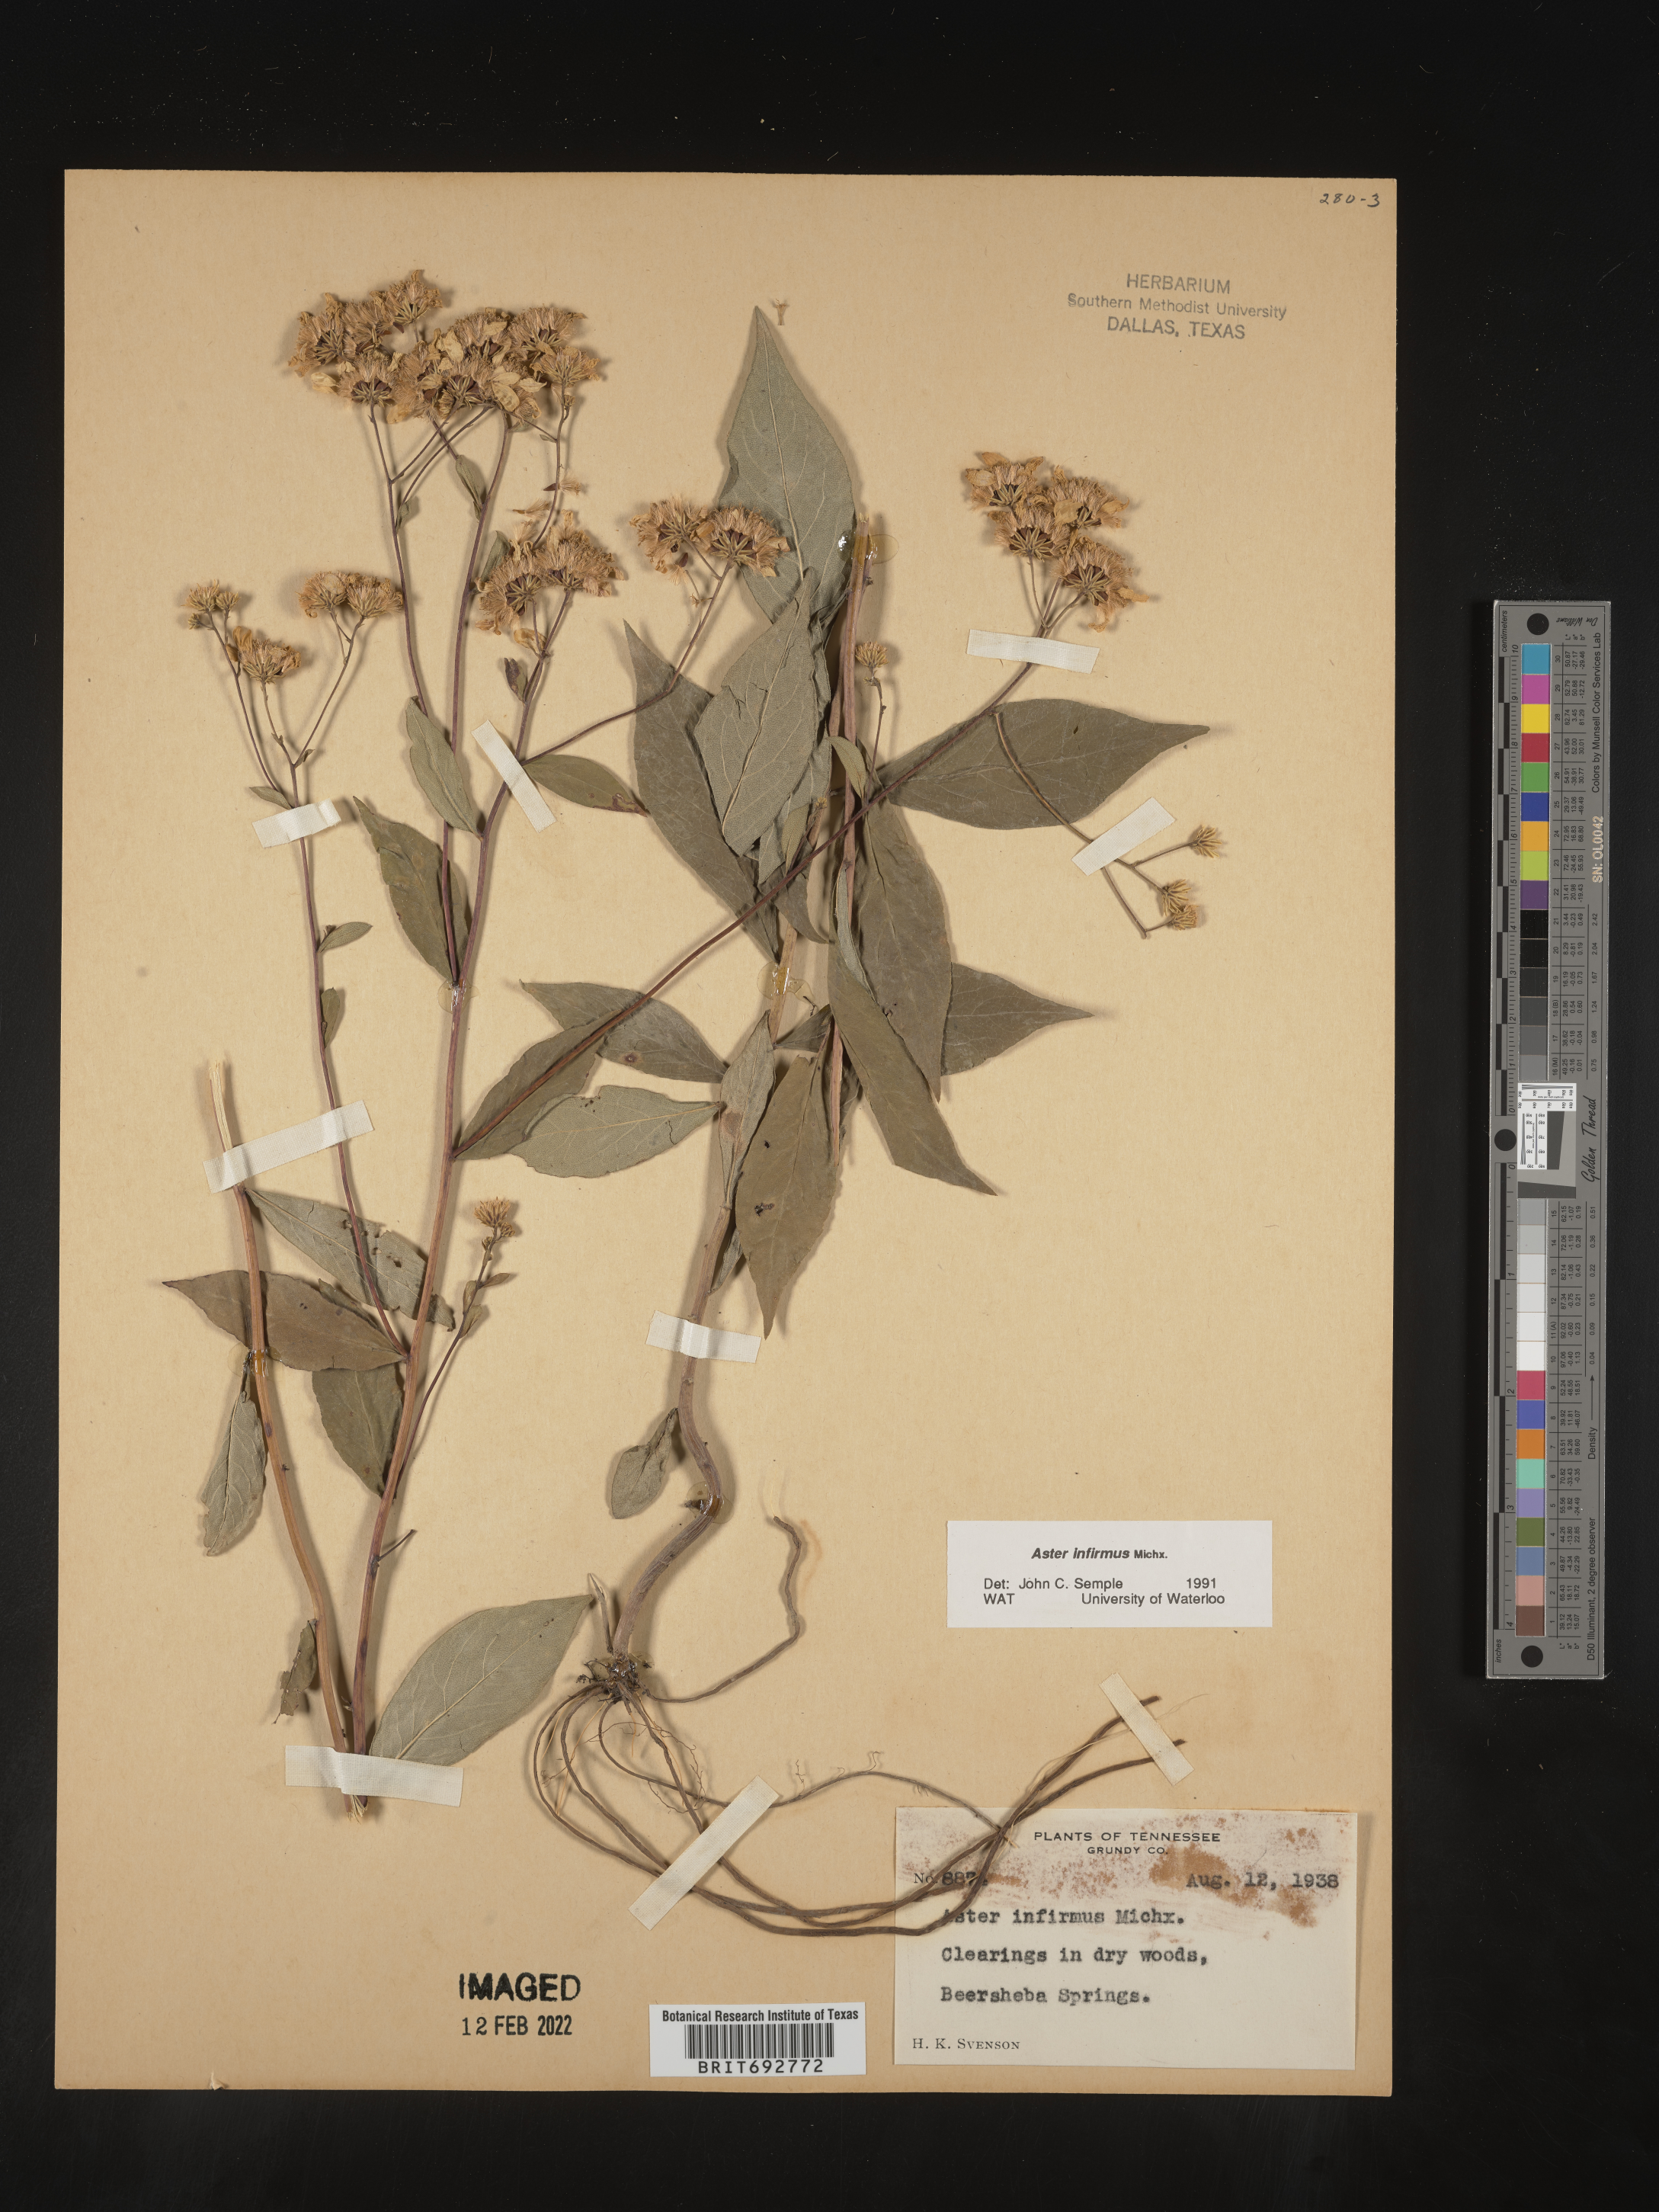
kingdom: Plantae
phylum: Tracheophyta
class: Magnoliopsida
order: Asterales
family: Asteraceae
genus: Doellingeria
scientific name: Doellingeria infirma
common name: Appalachian flat-top aster
